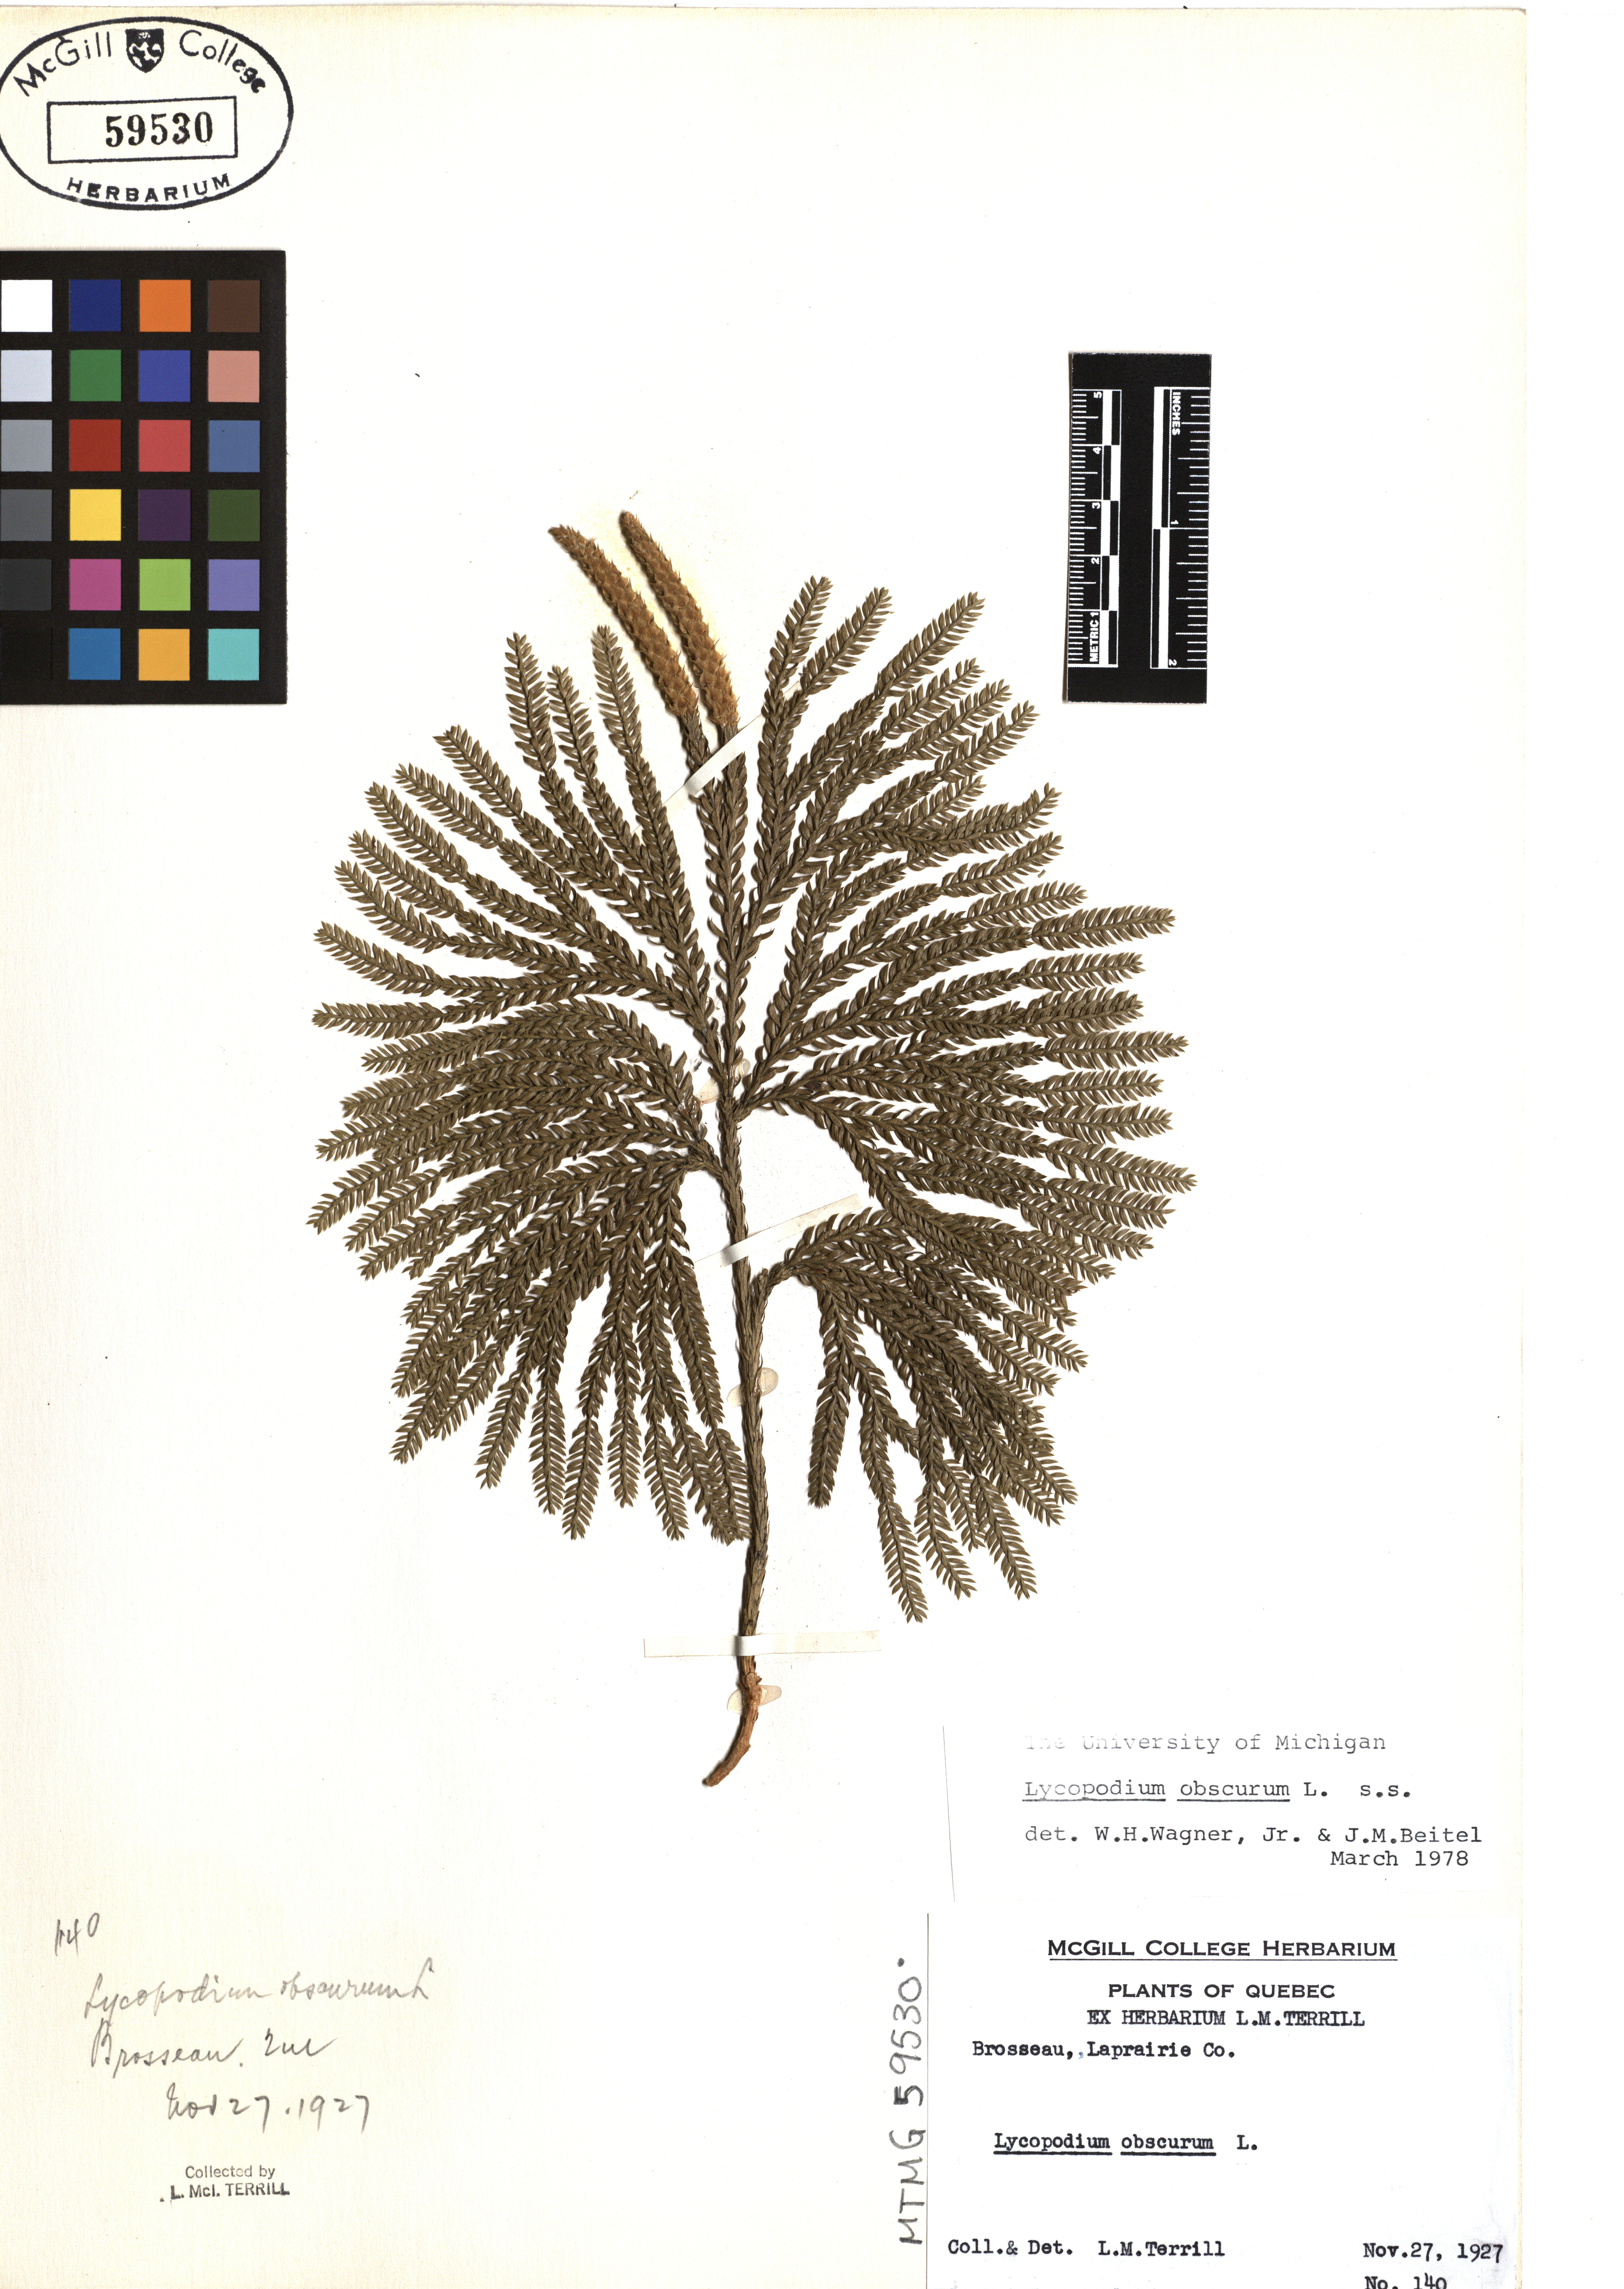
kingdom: Plantae
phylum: Tracheophyta
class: Lycopodiopsida
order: Lycopodiales
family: Lycopodiaceae
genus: Dendrolycopodium
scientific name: Dendrolycopodium obscurum
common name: Common ground-pine
